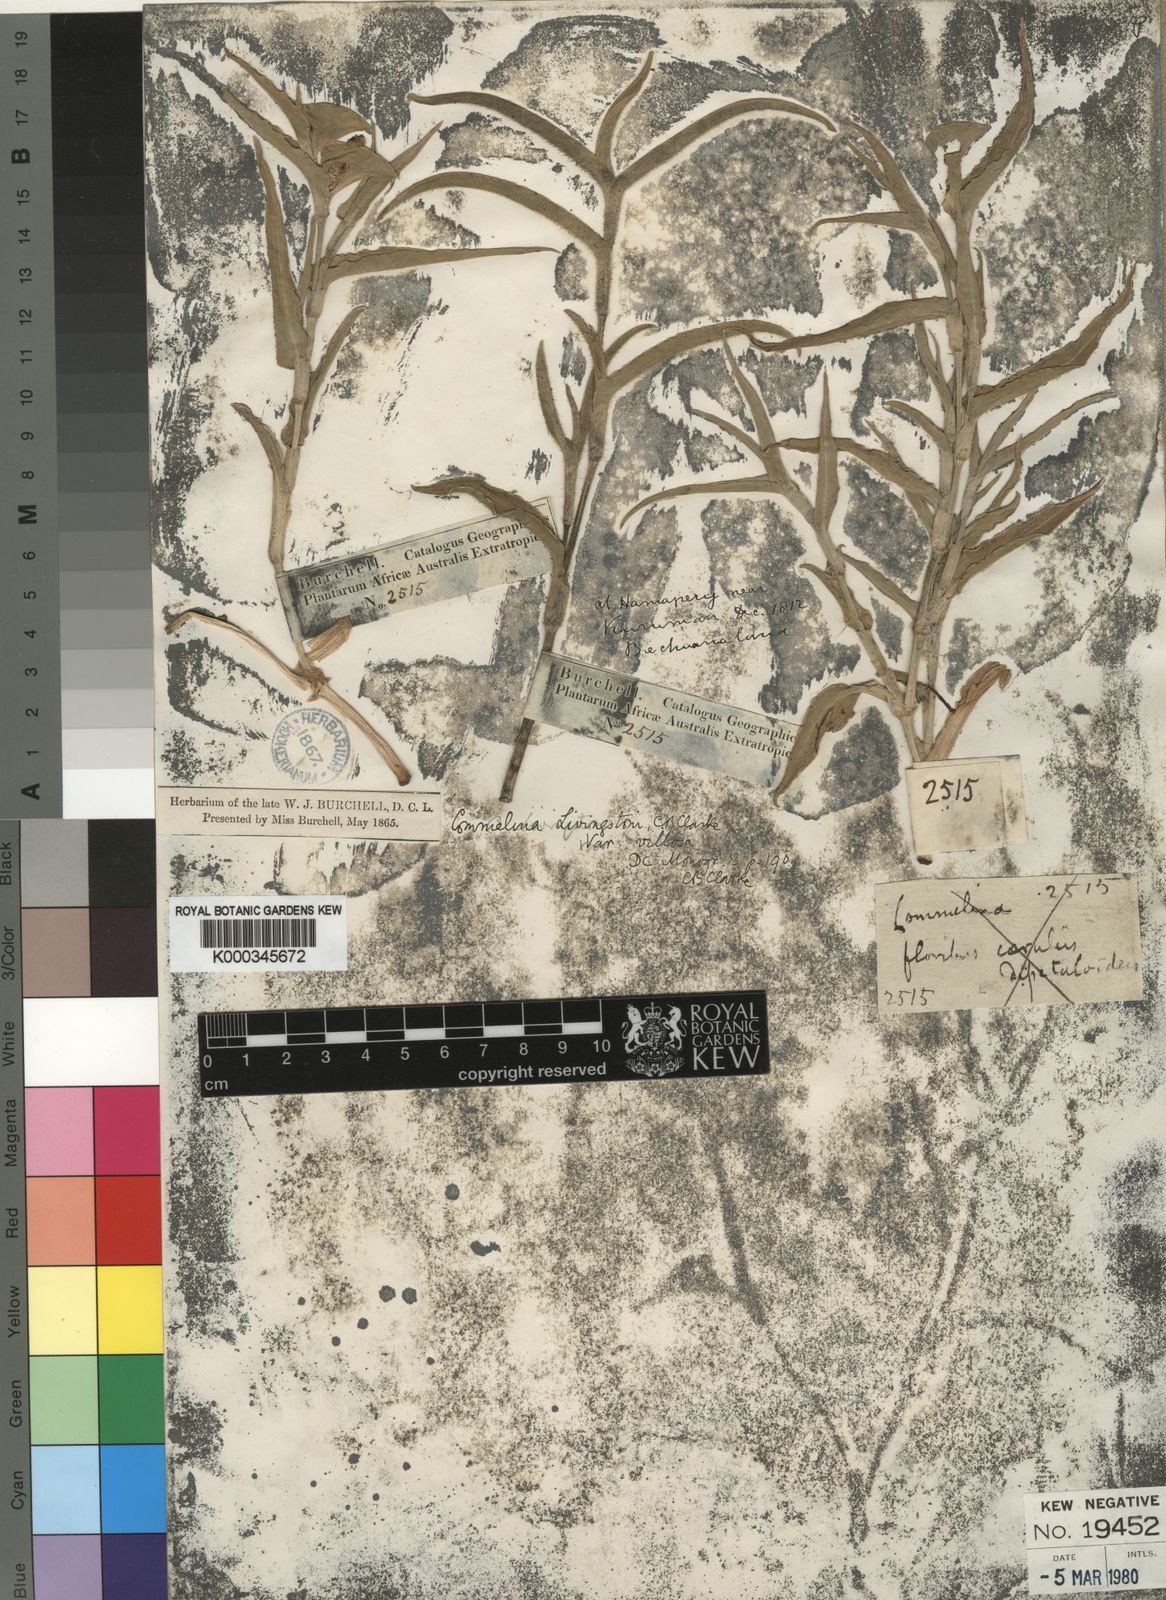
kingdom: Plantae
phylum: Tracheophyta
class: Liliopsida
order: Commelinales
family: Commelinaceae
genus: Commelina
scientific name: Commelina erecta
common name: Blousel blommetjie
